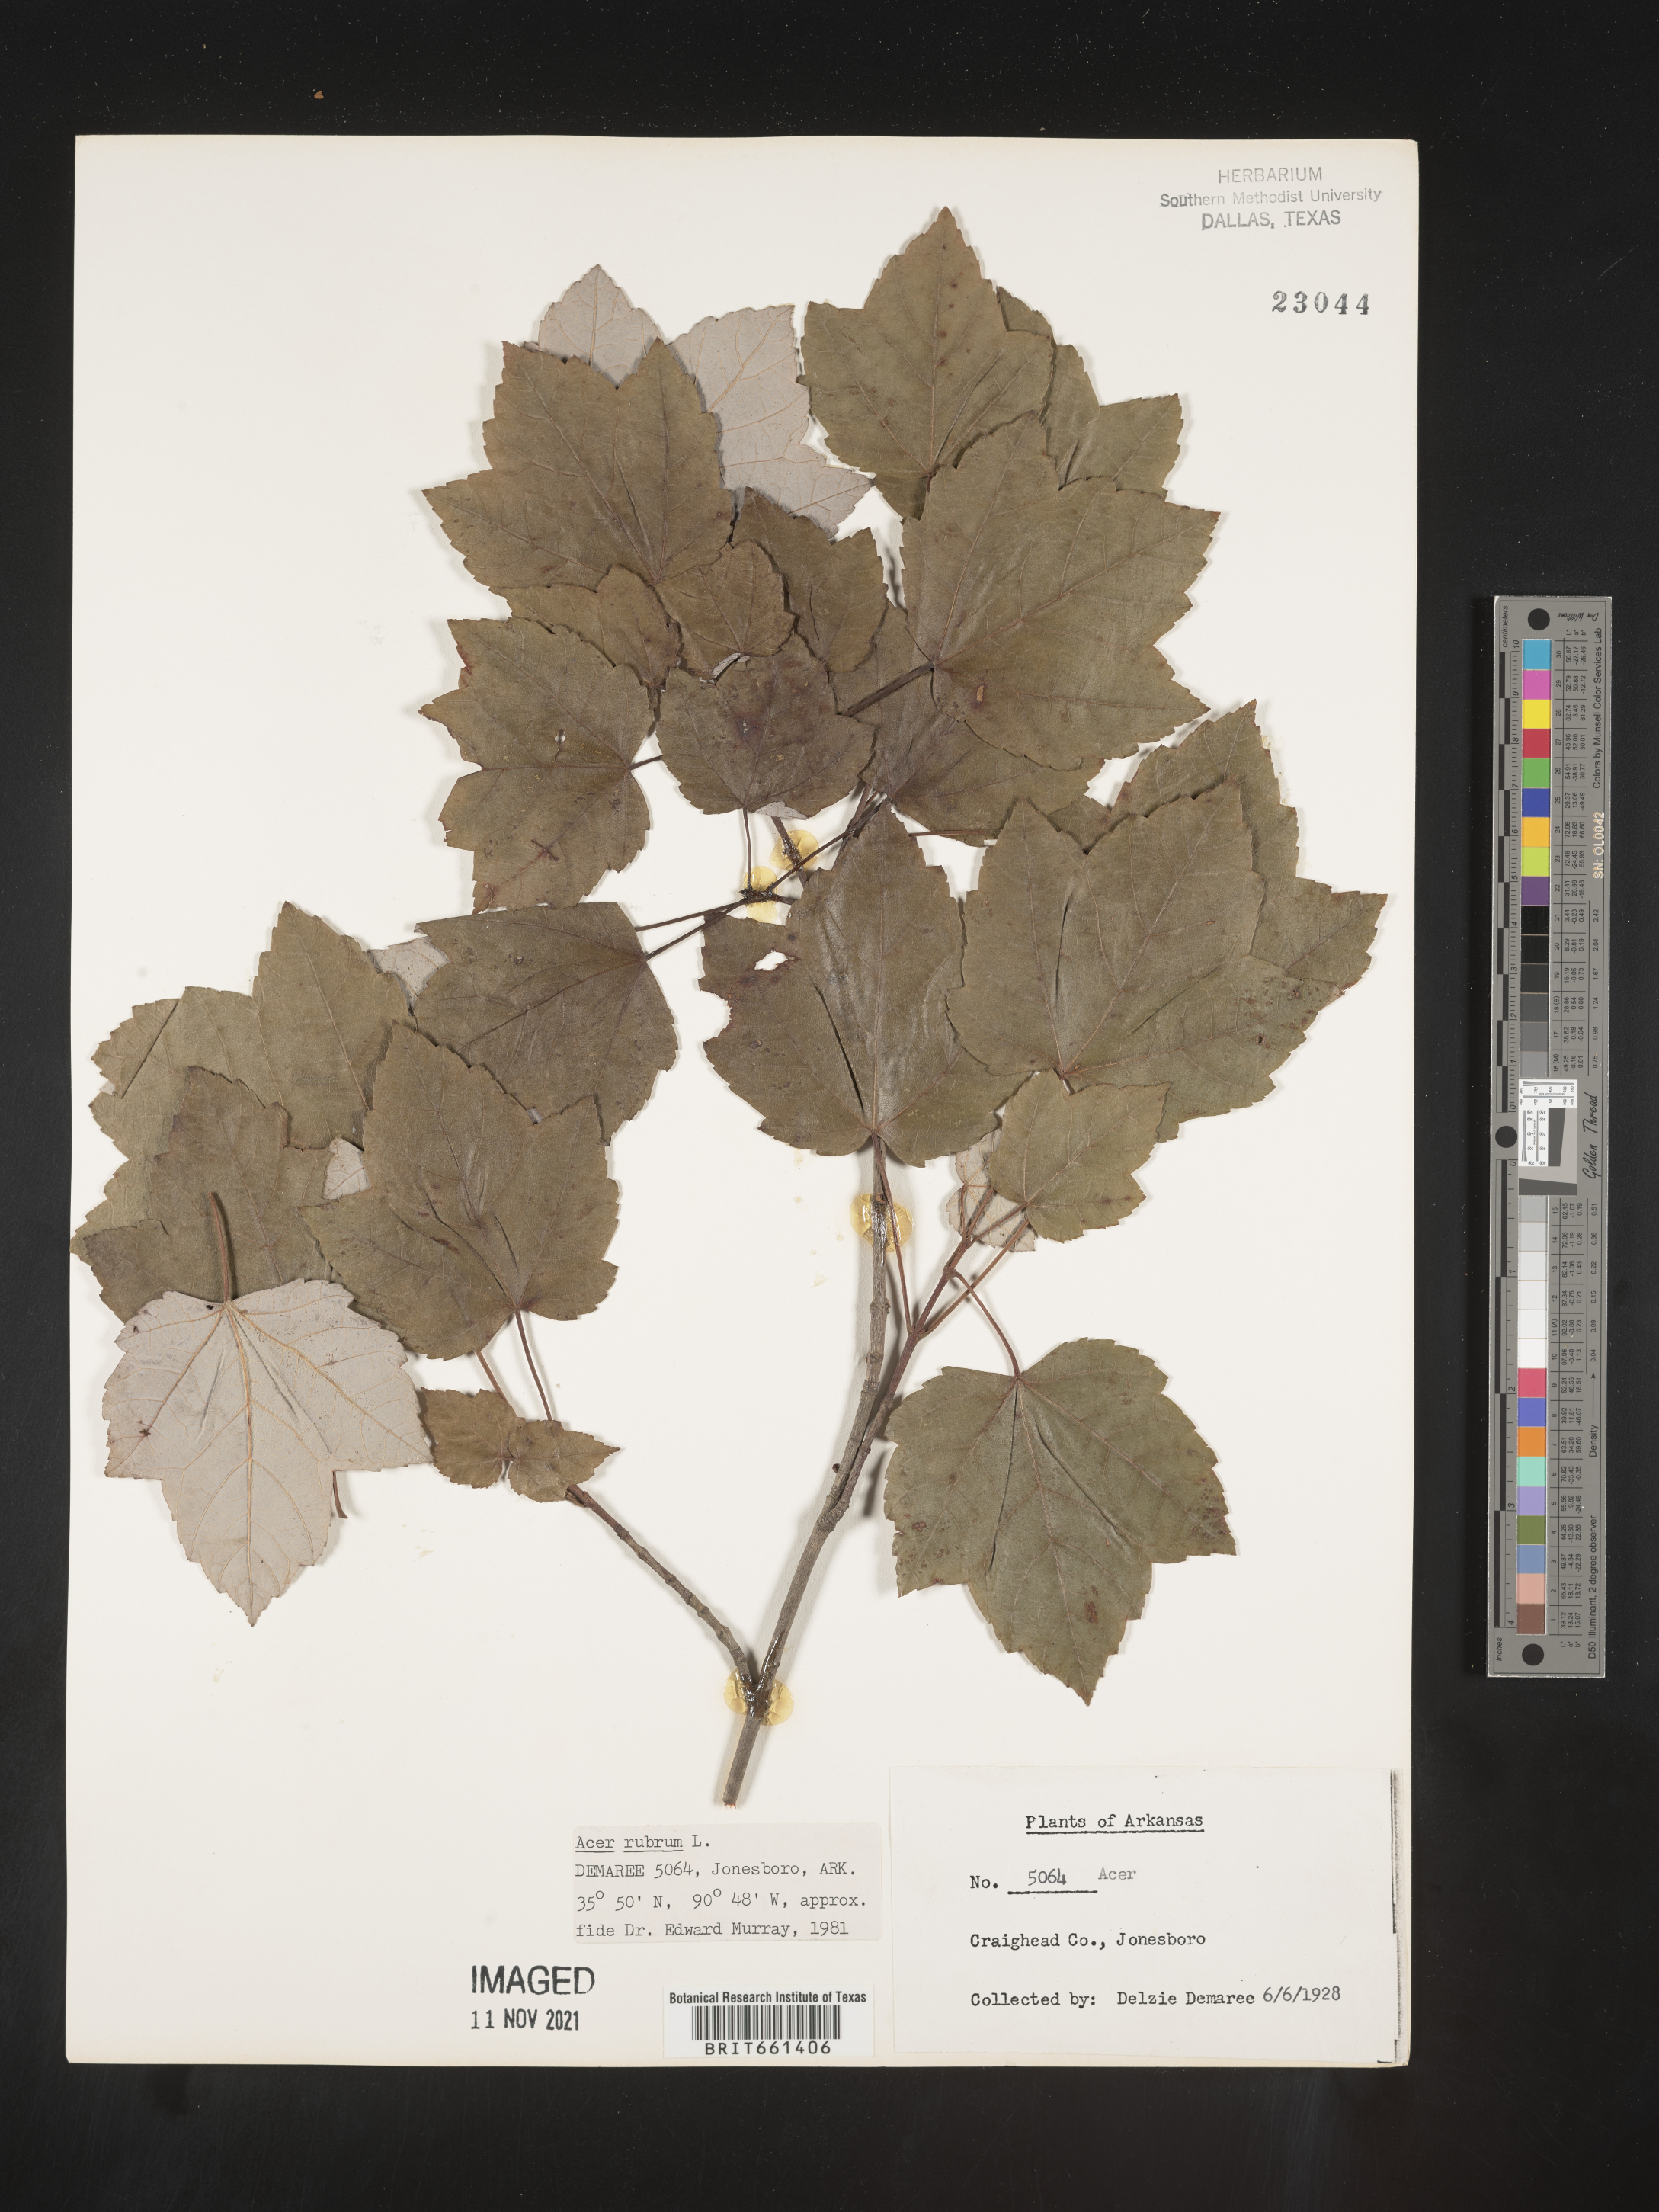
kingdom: Plantae
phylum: Tracheophyta
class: Magnoliopsida
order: Sapindales
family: Sapindaceae
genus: Acer
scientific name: Acer rubrum
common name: Red maple
